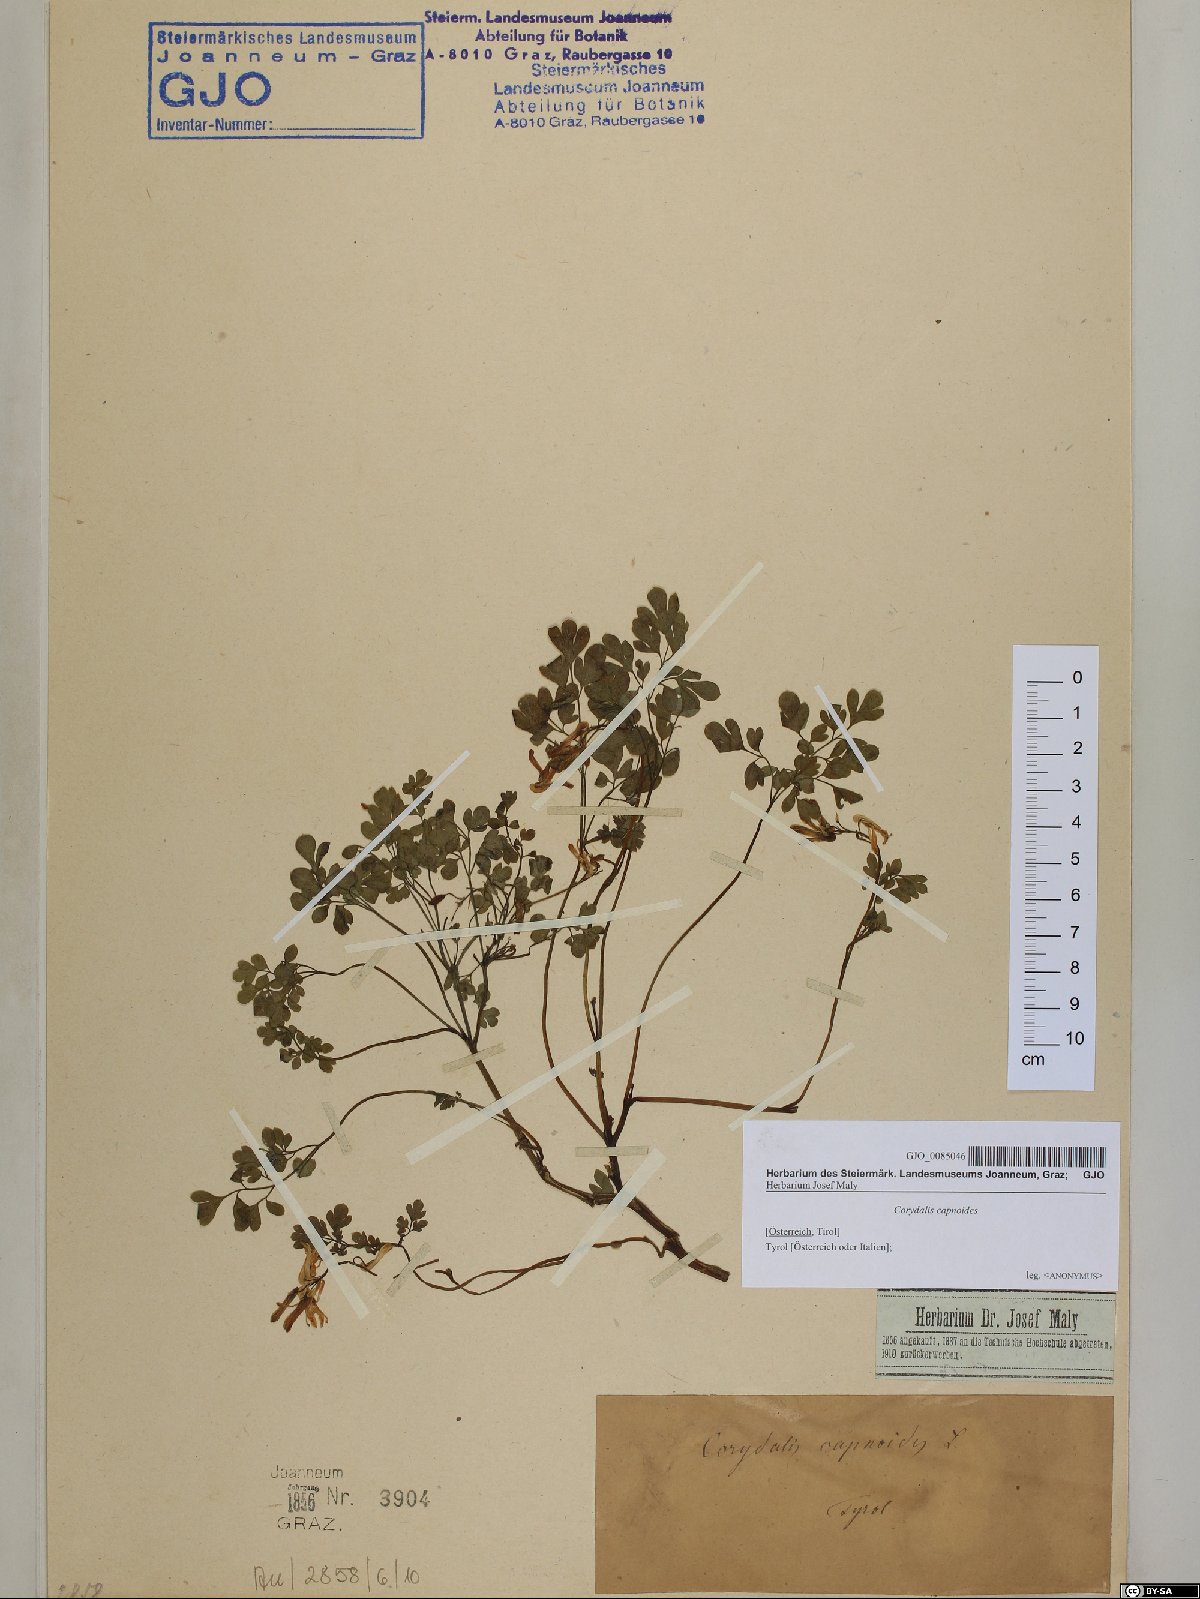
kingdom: Plantae
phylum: Tracheophyta
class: Magnoliopsida
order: Ranunculales
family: Papaveraceae
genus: Corydalis
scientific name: Corydalis capnoides
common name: Beaked corydalis
